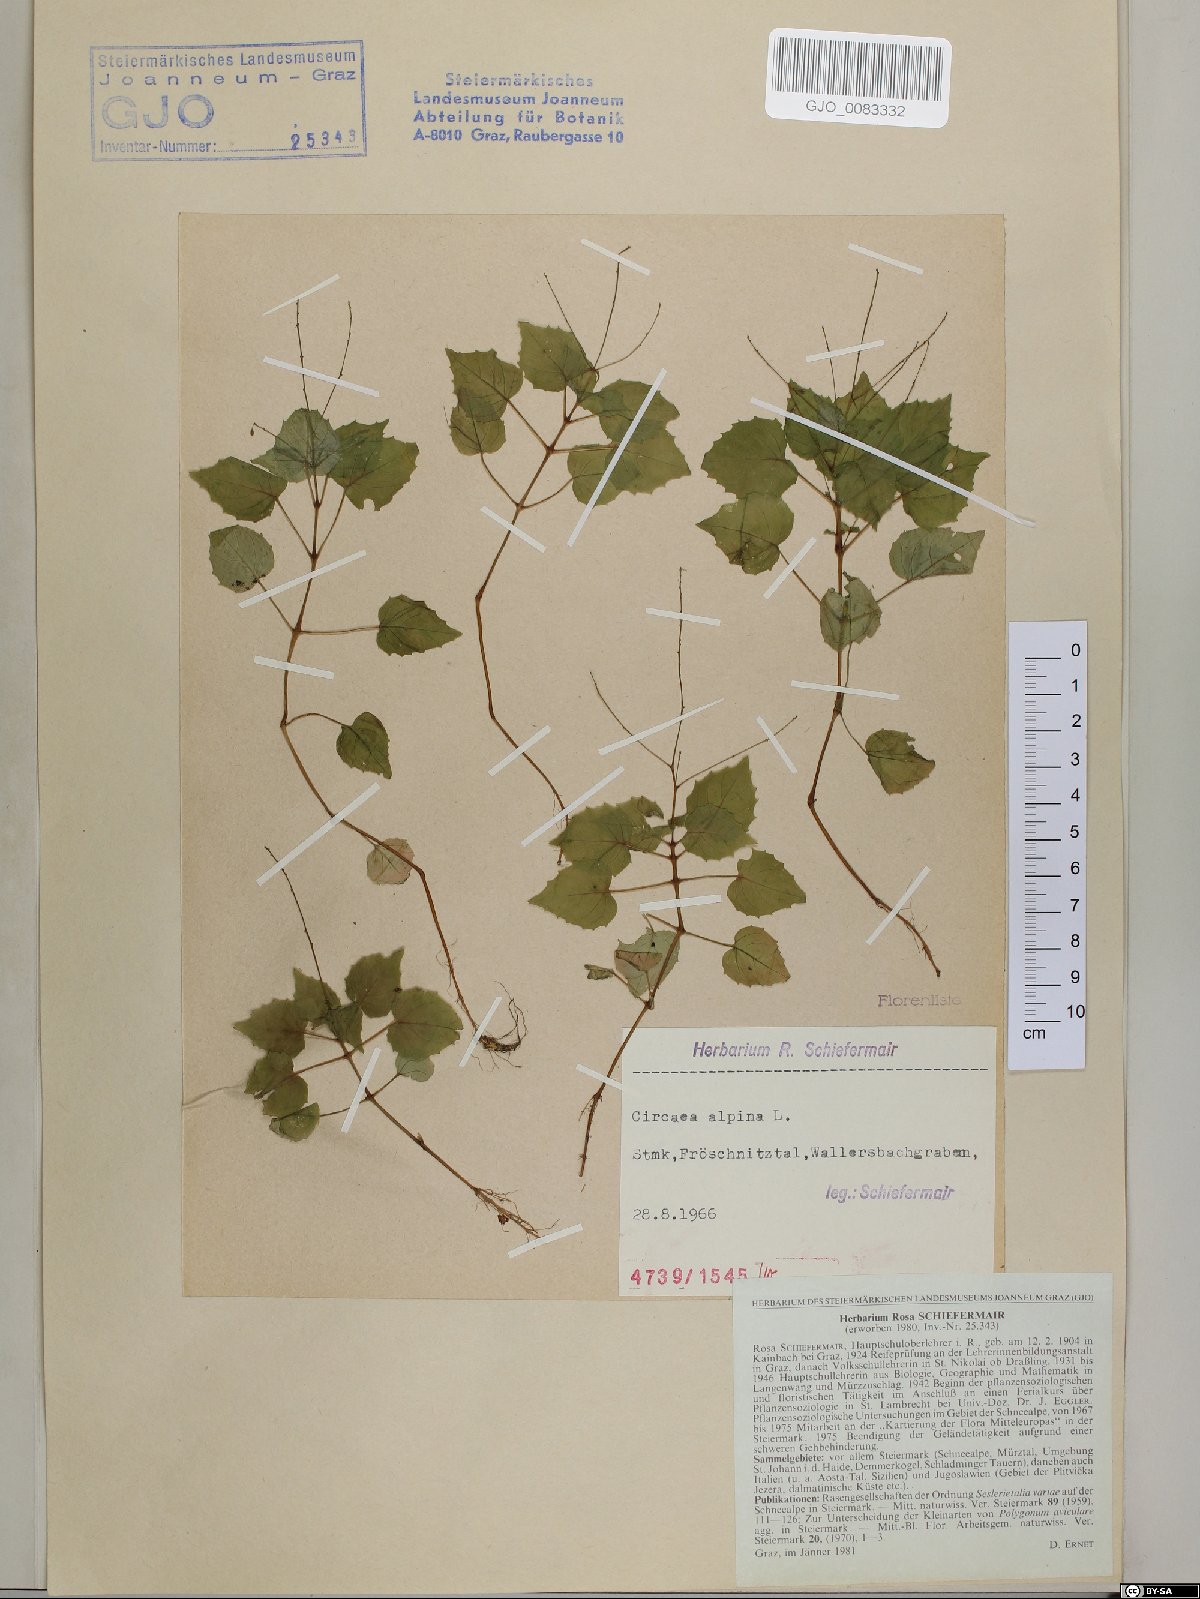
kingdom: Plantae
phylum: Tracheophyta
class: Magnoliopsida
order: Myrtales
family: Onagraceae
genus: Circaea
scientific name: Circaea alpina
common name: Alpine enchanter's-nightshade
